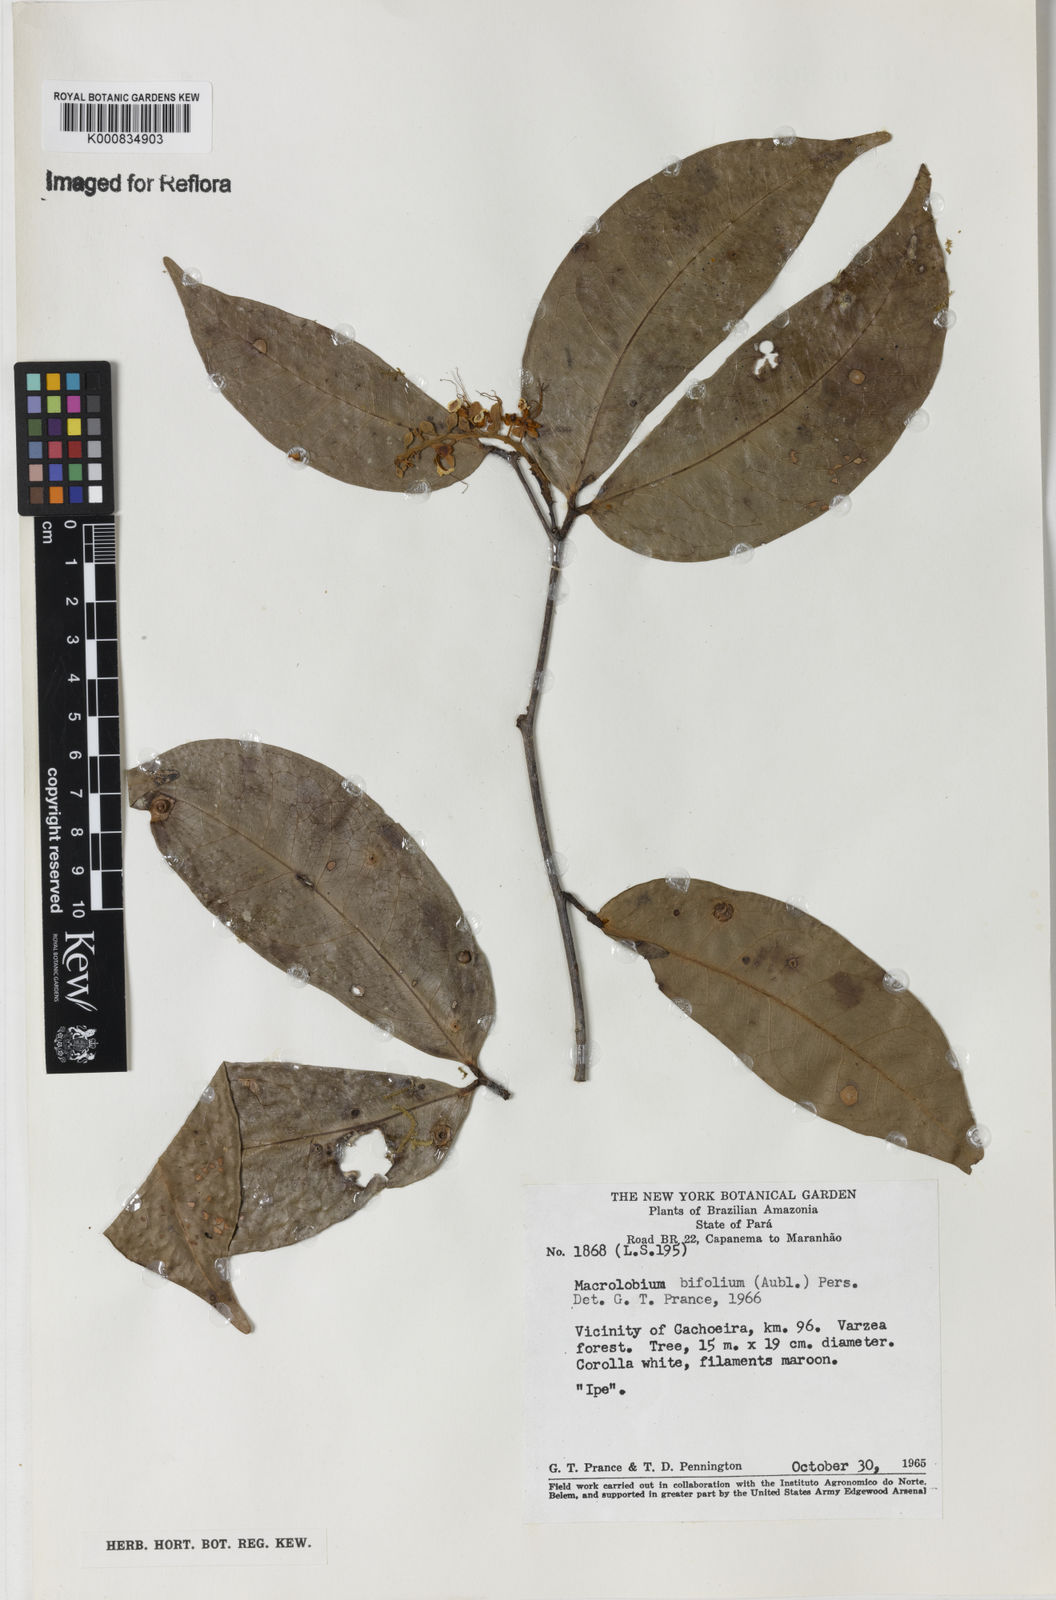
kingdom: Plantae
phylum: Tracheophyta
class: Magnoliopsida
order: Fabales
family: Fabaceae
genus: Macrolobium
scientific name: Macrolobium bifolium
